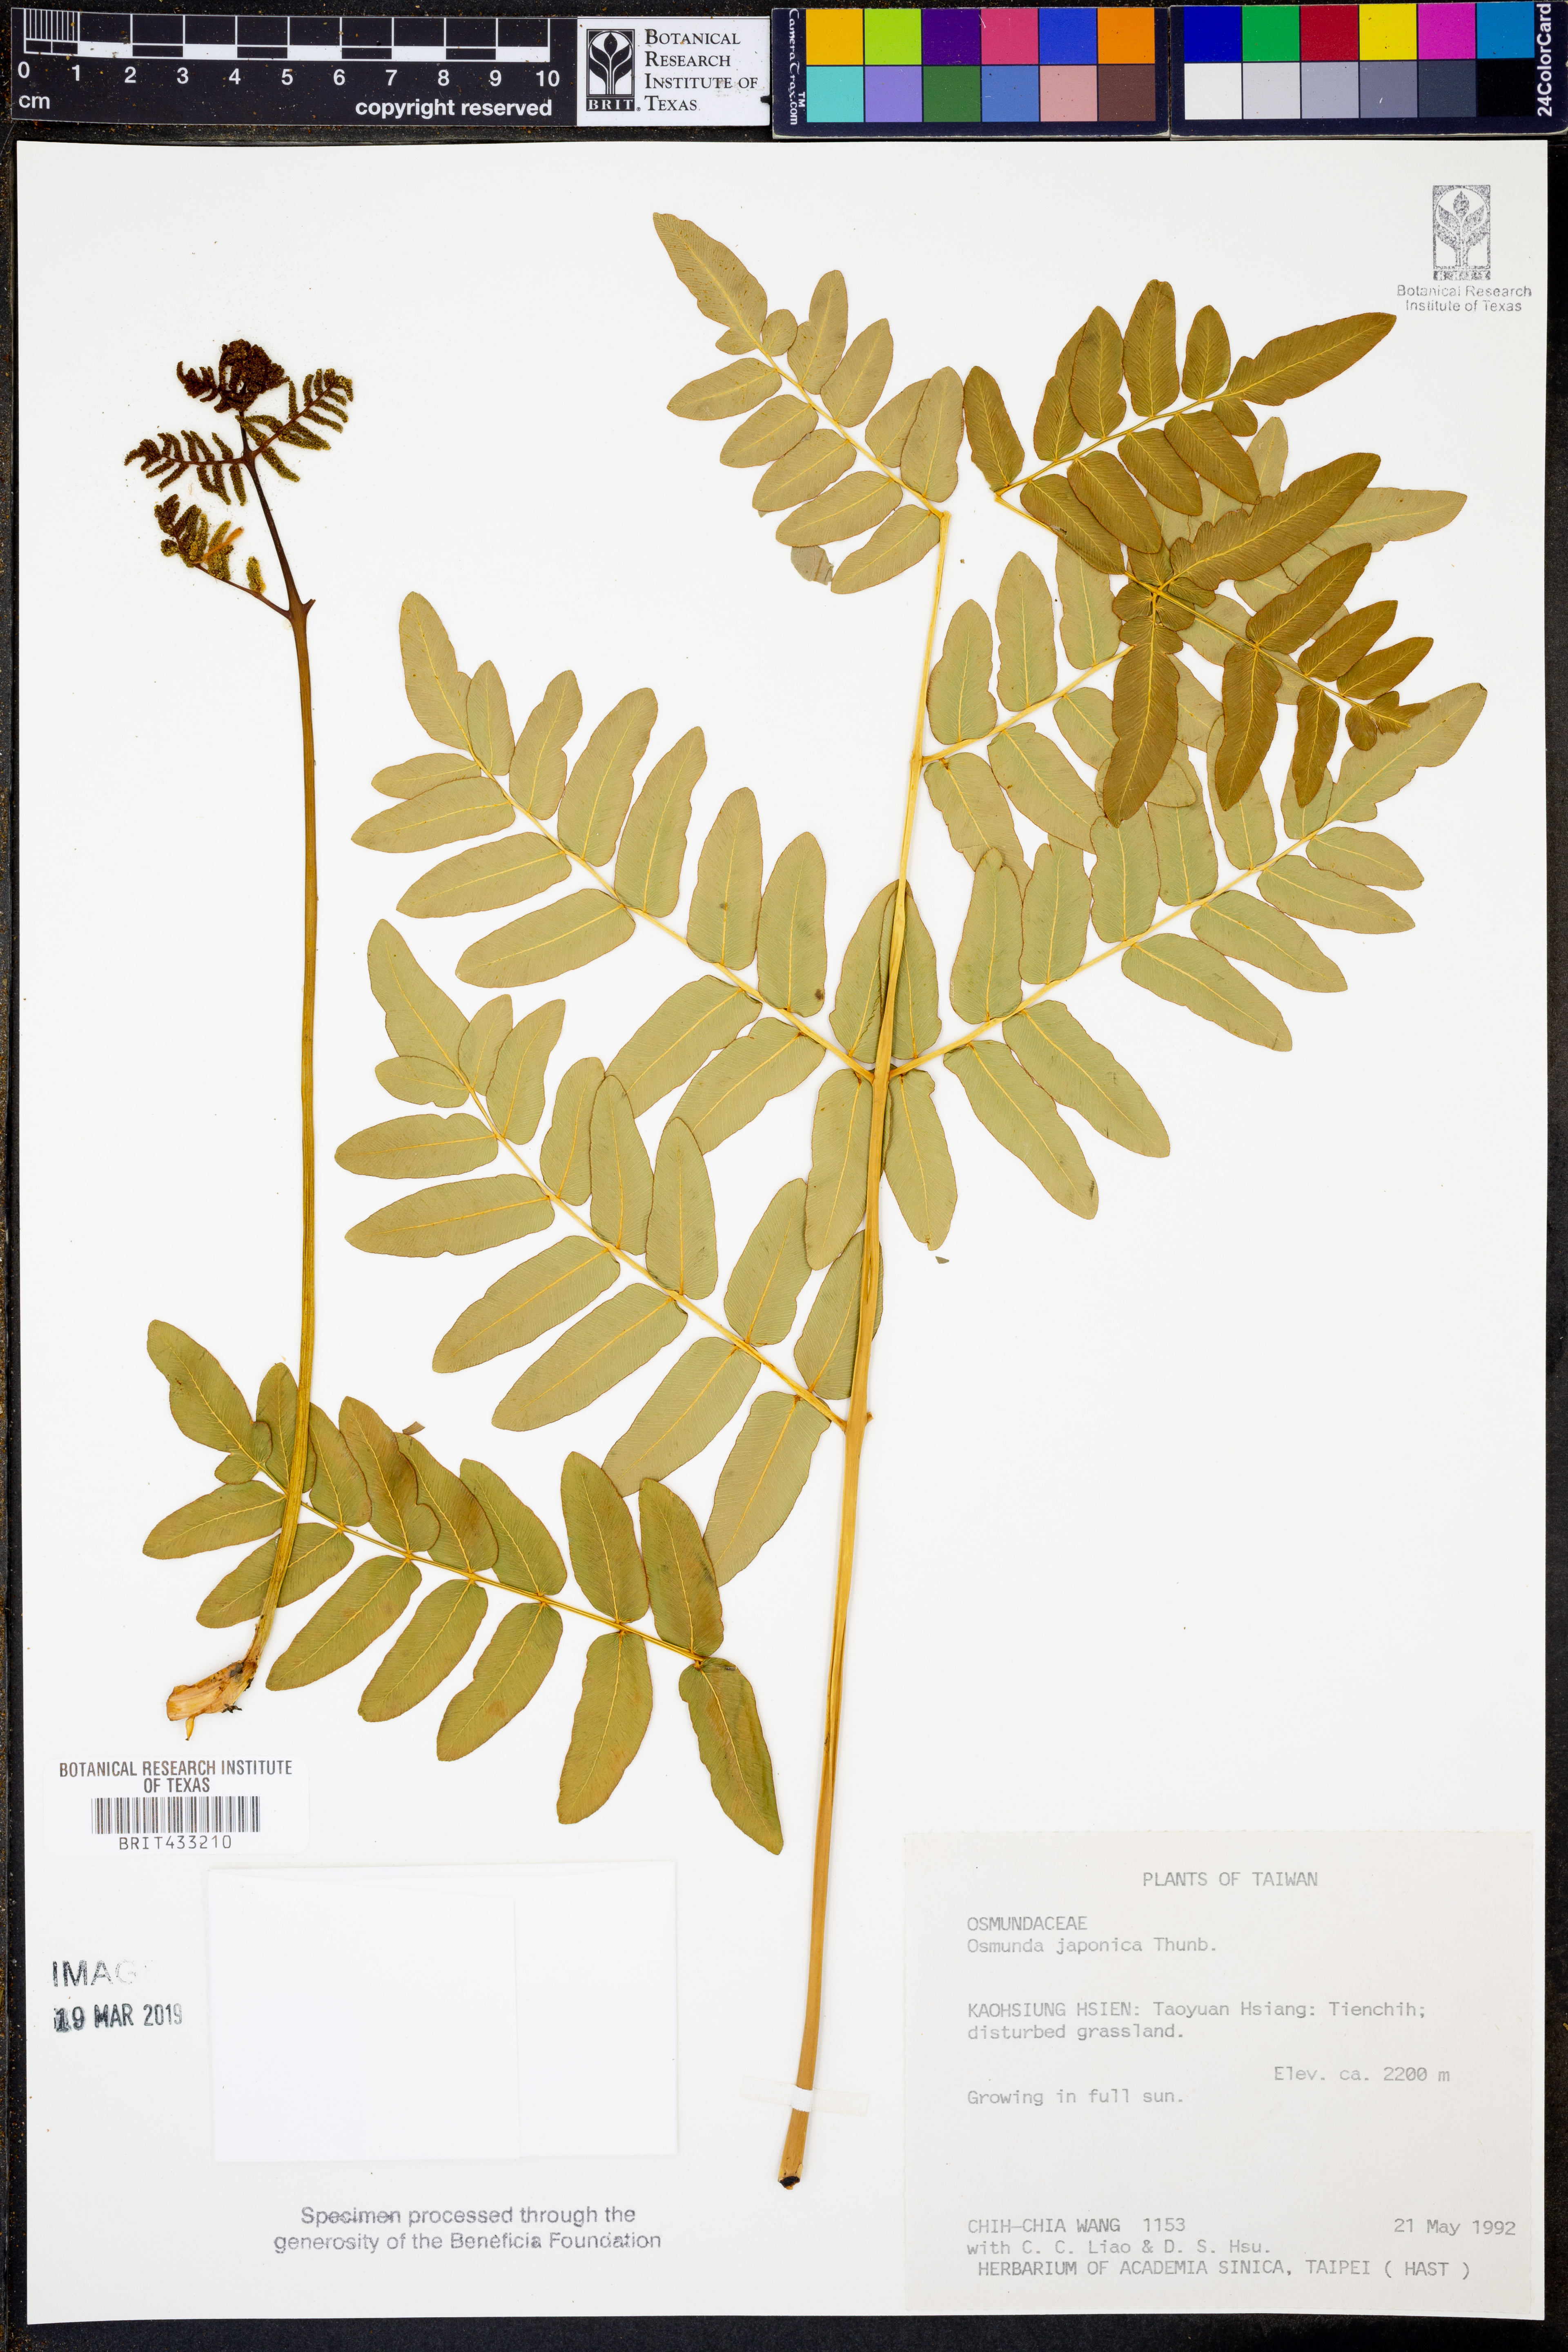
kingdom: Plantae
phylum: Tracheophyta
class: Polypodiopsida
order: Osmundales
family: Osmundaceae
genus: Osmunda
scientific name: Osmunda japonica
